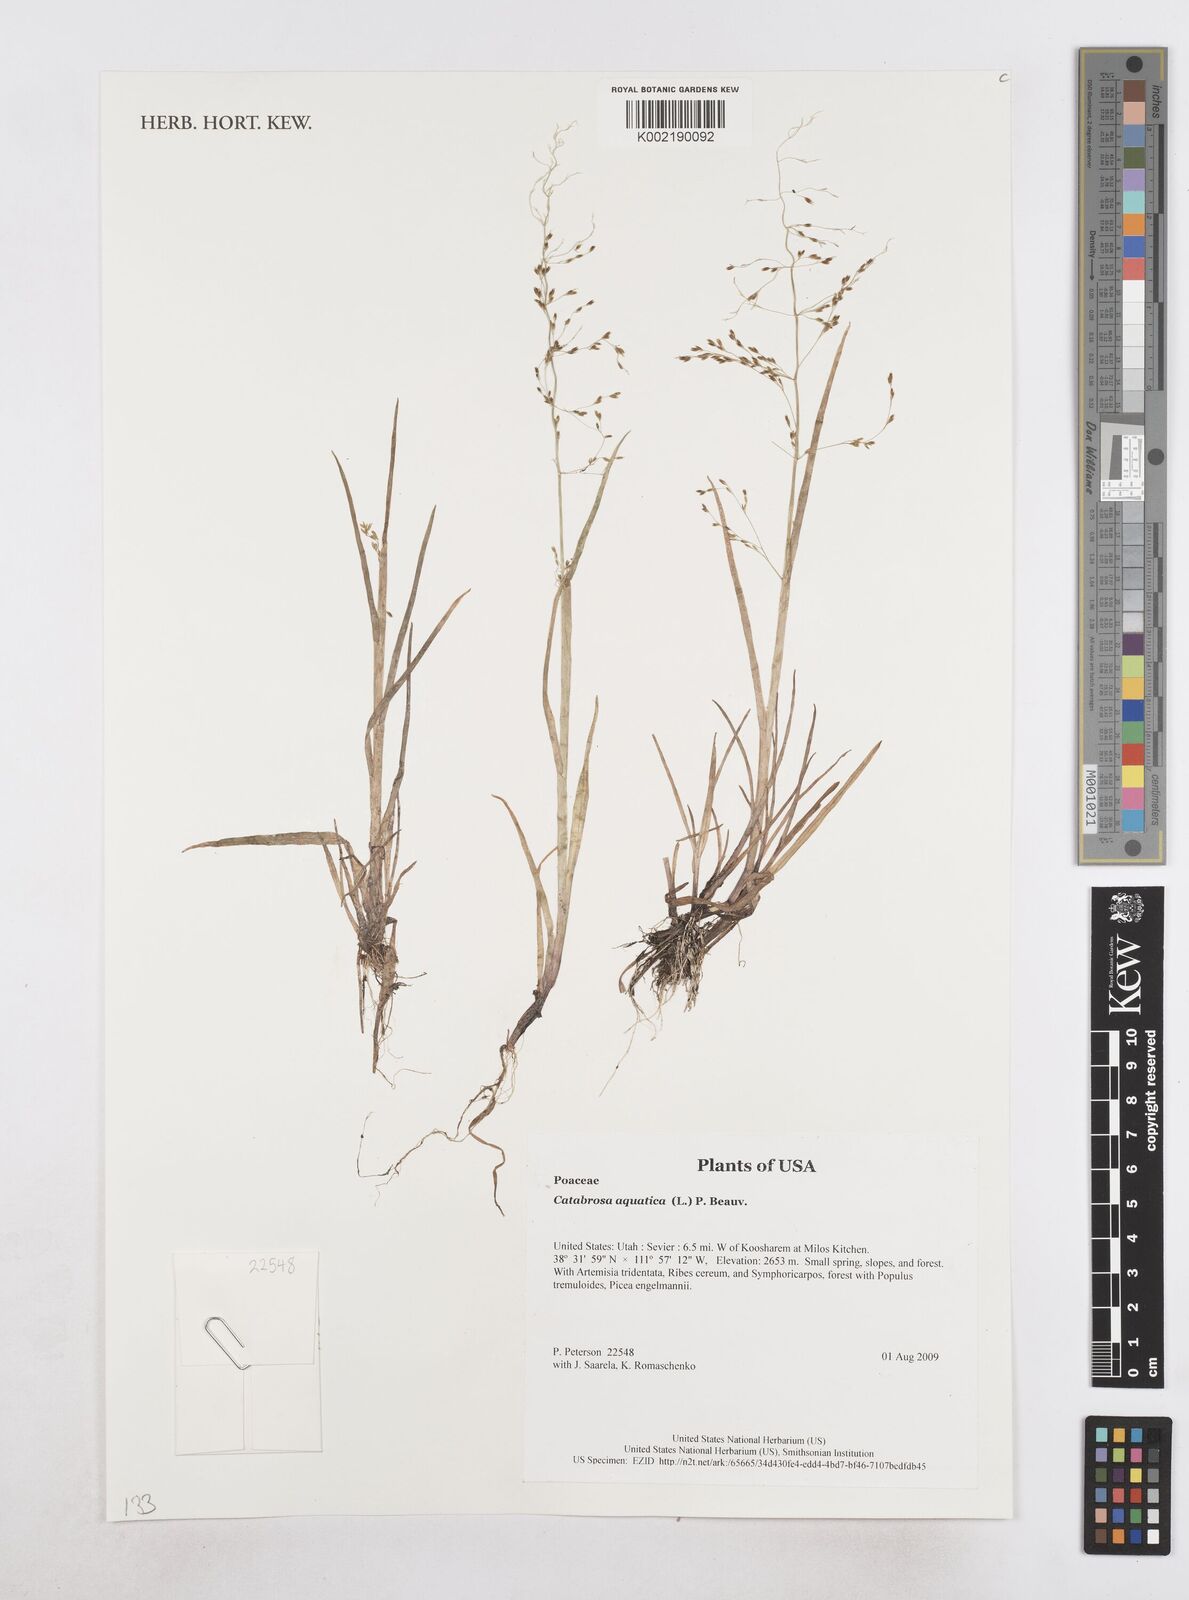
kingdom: Plantae
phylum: Tracheophyta
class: Liliopsida
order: Poales
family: Poaceae
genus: Catabrosa
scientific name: Catabrosa aquatica
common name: Whorl-grass
